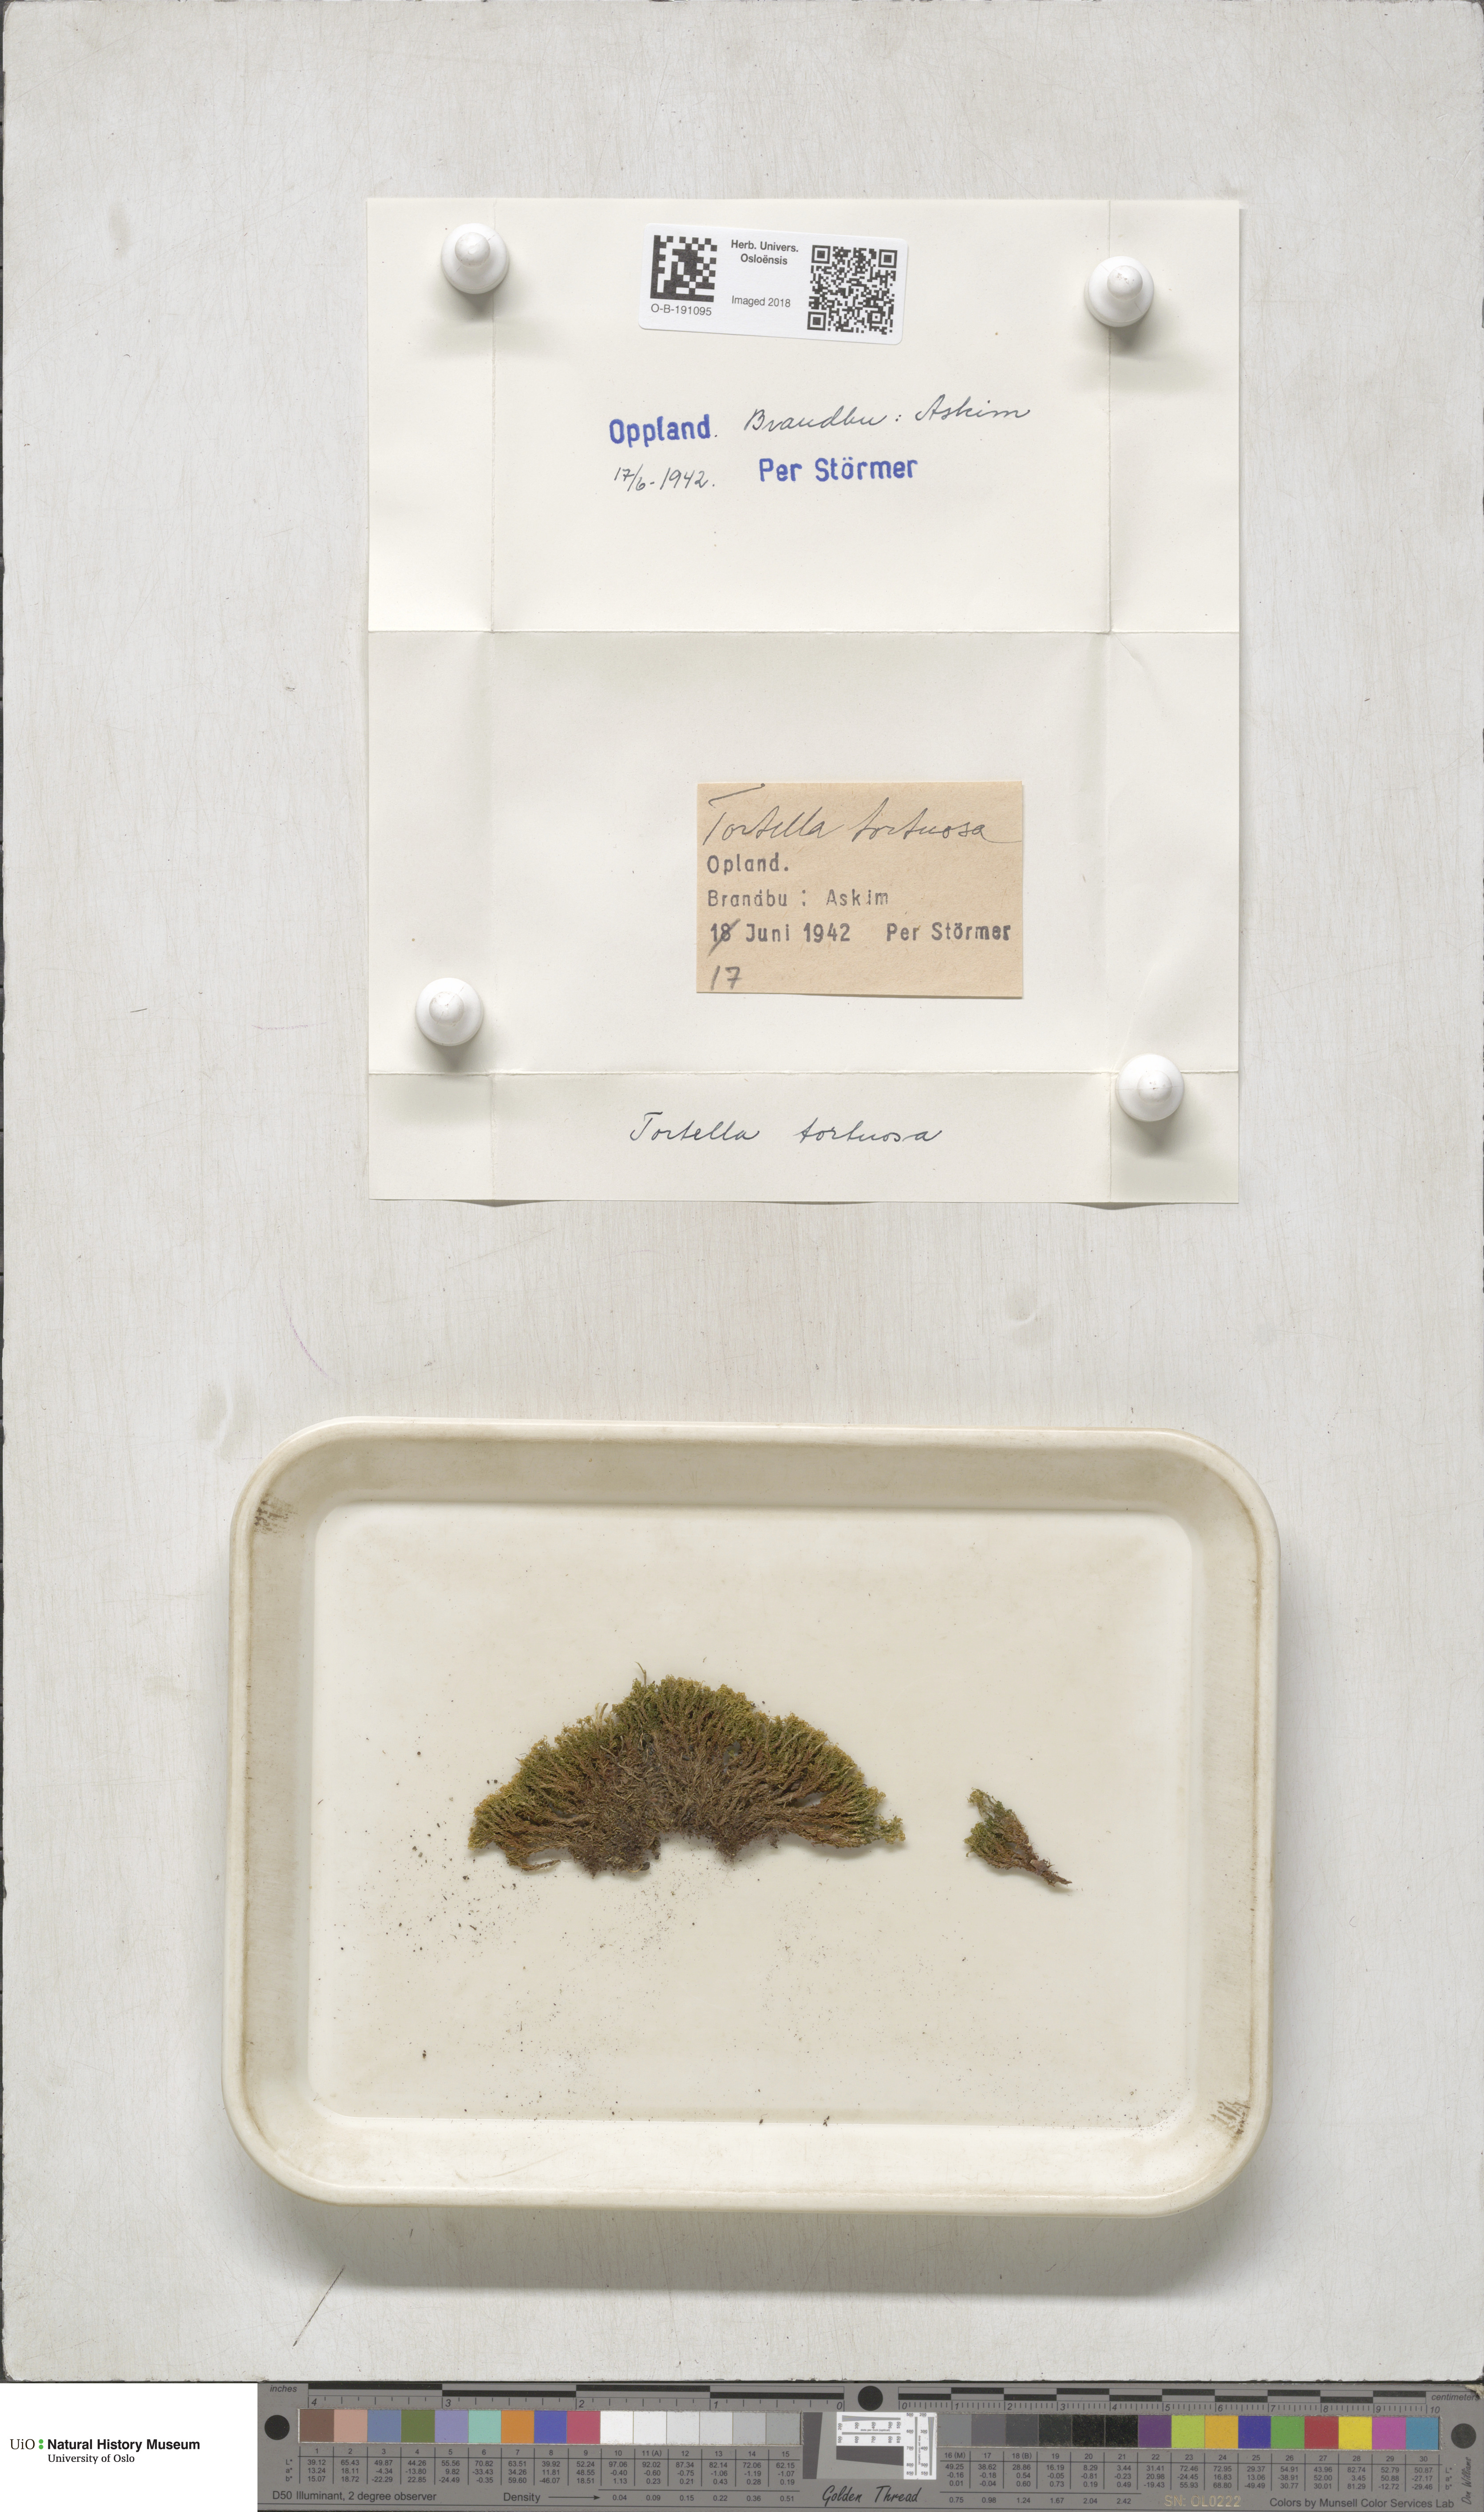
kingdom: Plantae
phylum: Bryophyta
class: Bryopsida
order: Pottiales
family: Pottiaceae
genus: Tortella
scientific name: Tortella tortuosa
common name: Frizzled crisp moss
